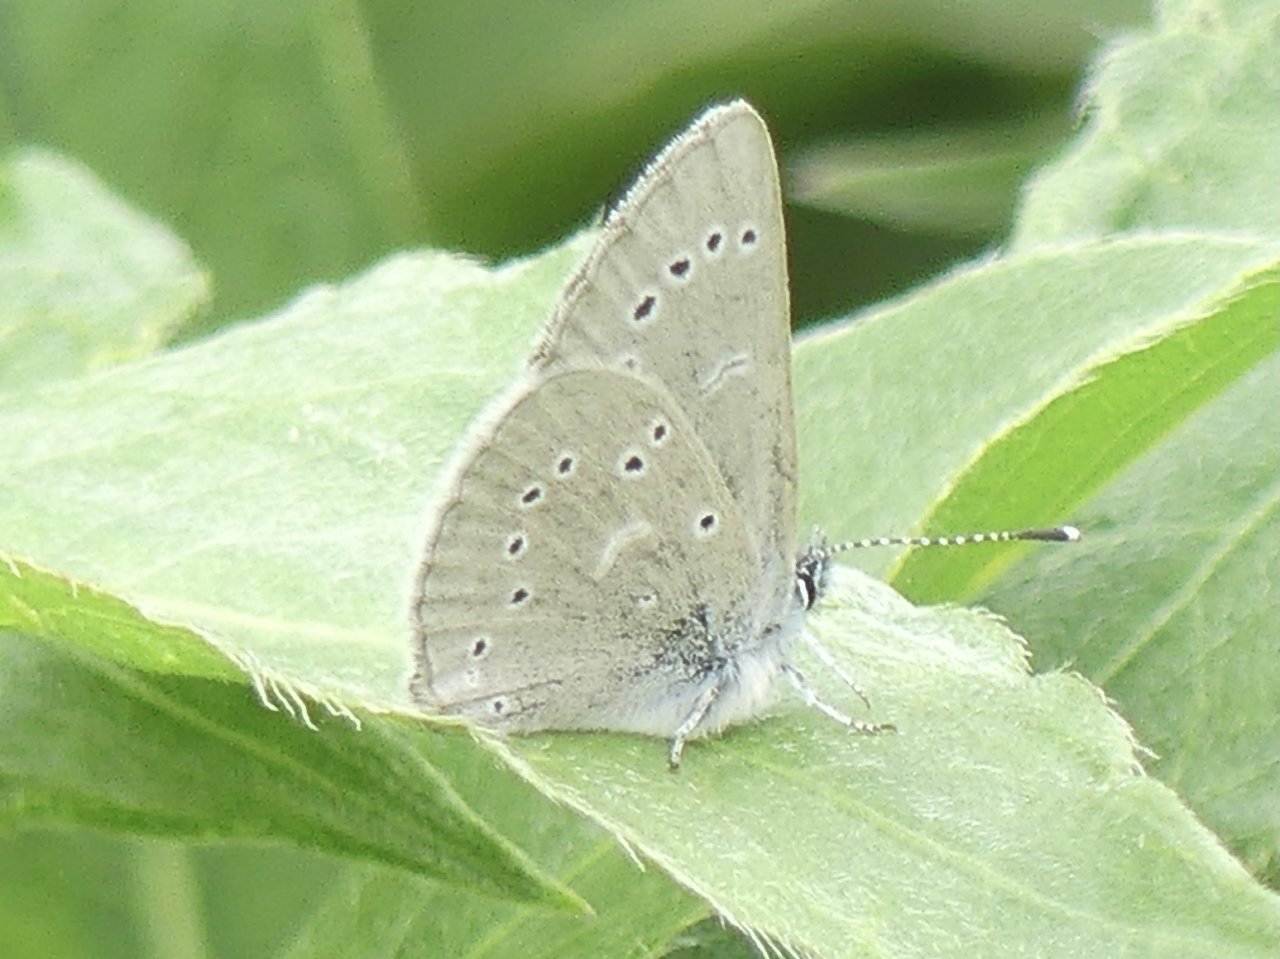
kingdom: Animalia
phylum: Arthropoda
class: Insecta
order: Lepidoptera
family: Lycaenidae
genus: Glaucopsyche
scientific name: Glaucopsyche lygdamus
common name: Silvery Blue
